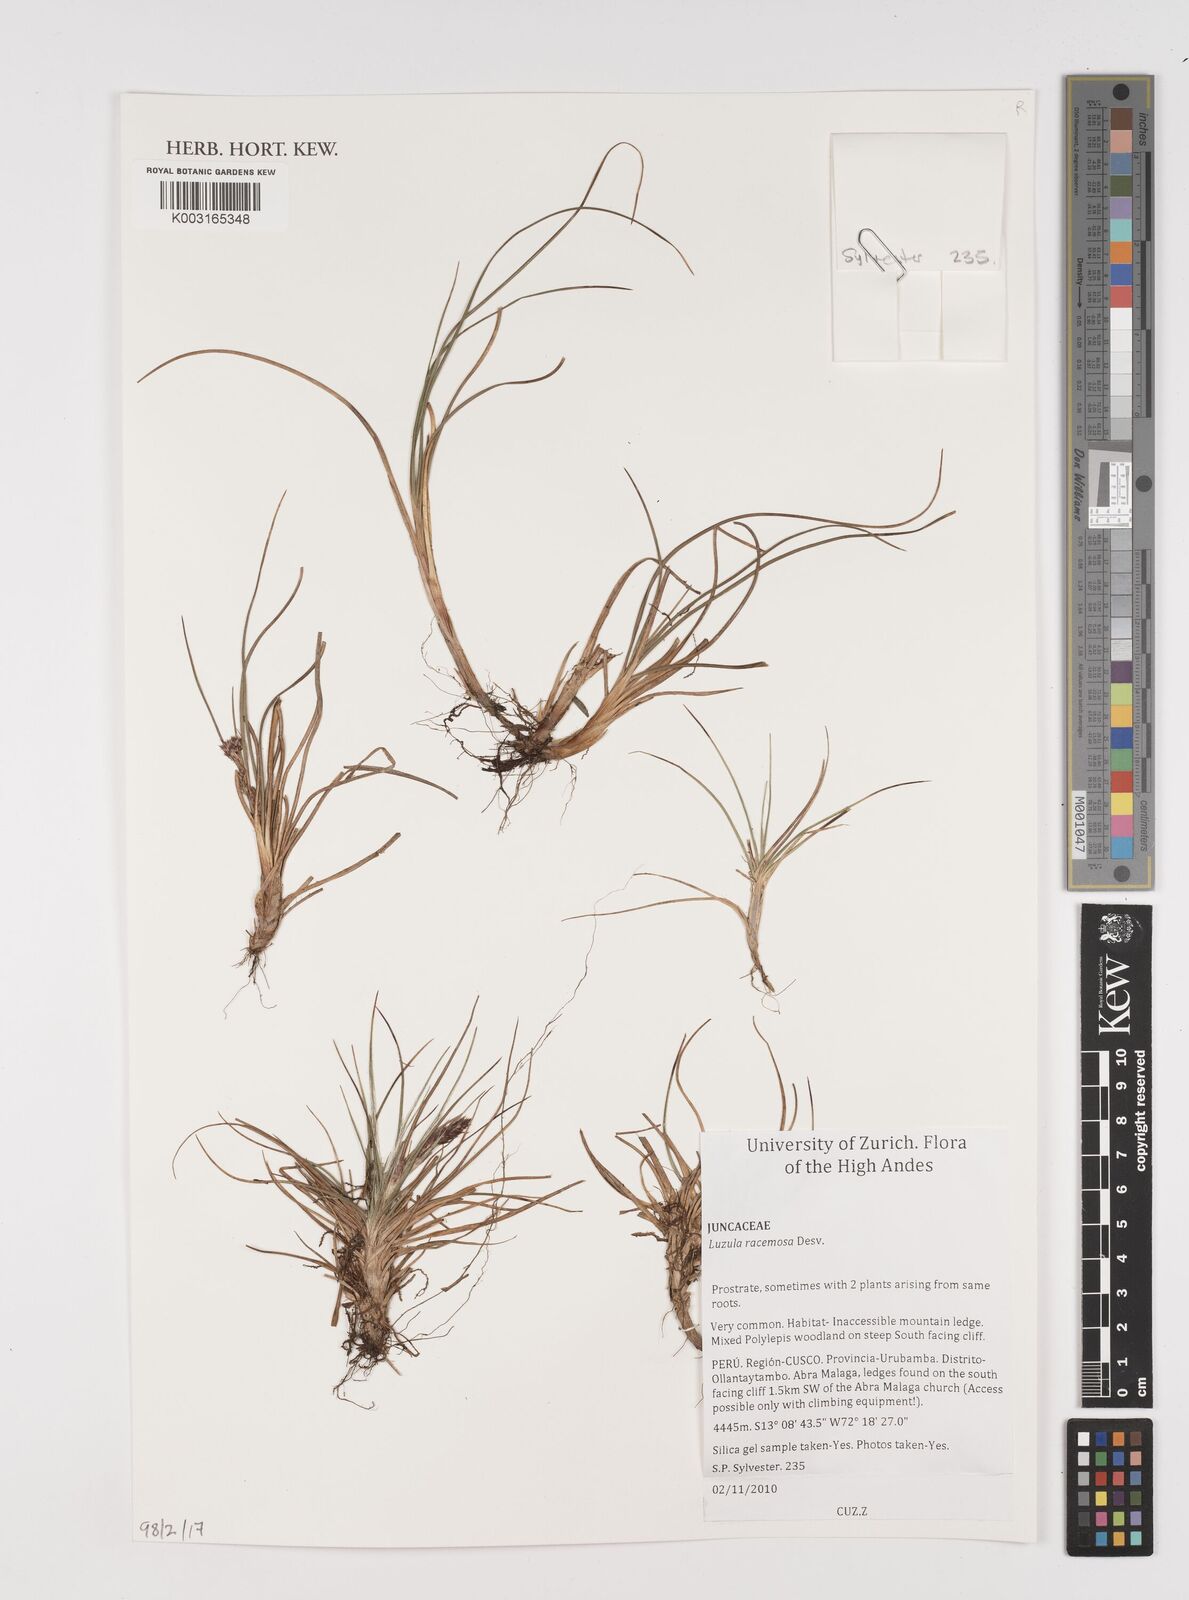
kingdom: Plantae
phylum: Tracheophyta
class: Liliopsida
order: Poales
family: Juncaceae
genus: Luzula
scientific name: Luzula racemosa
